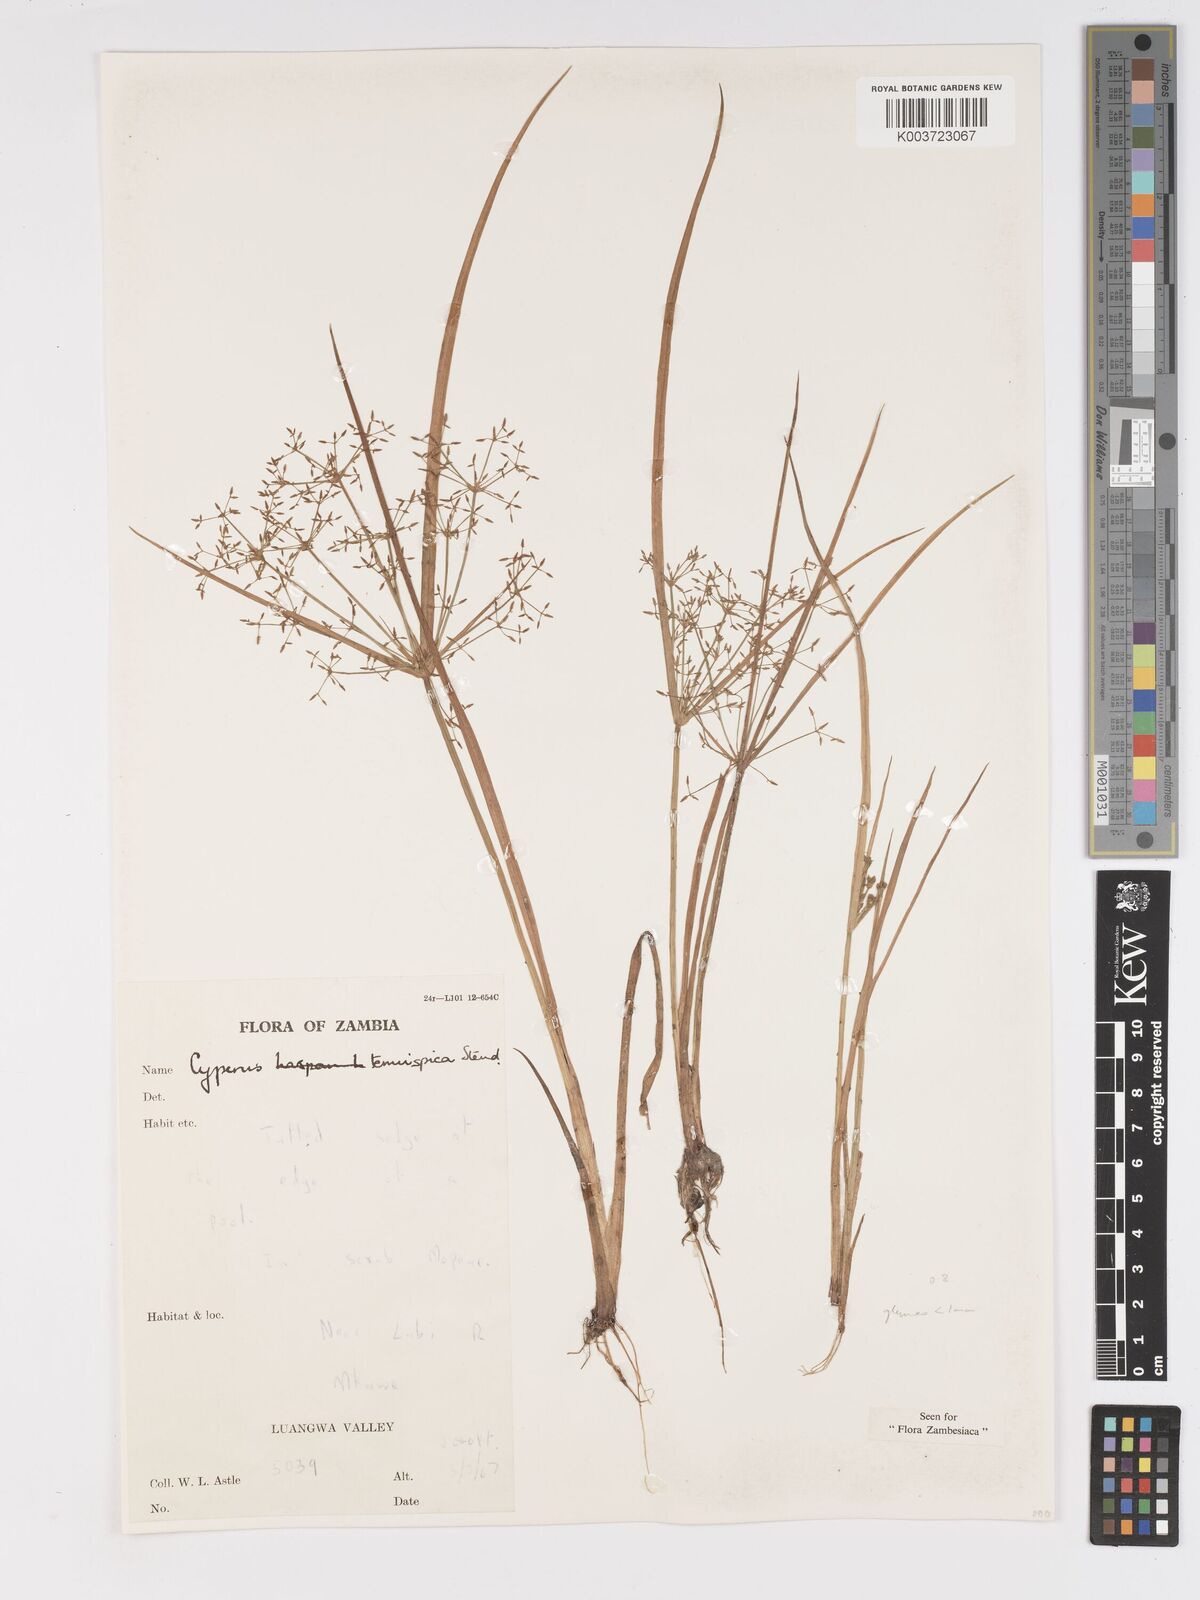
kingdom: Plantae
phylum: Tracheophyta
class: Liliopsida
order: Poales
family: Cyperaceae
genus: Cyperus
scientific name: Cyperus tenuispica
